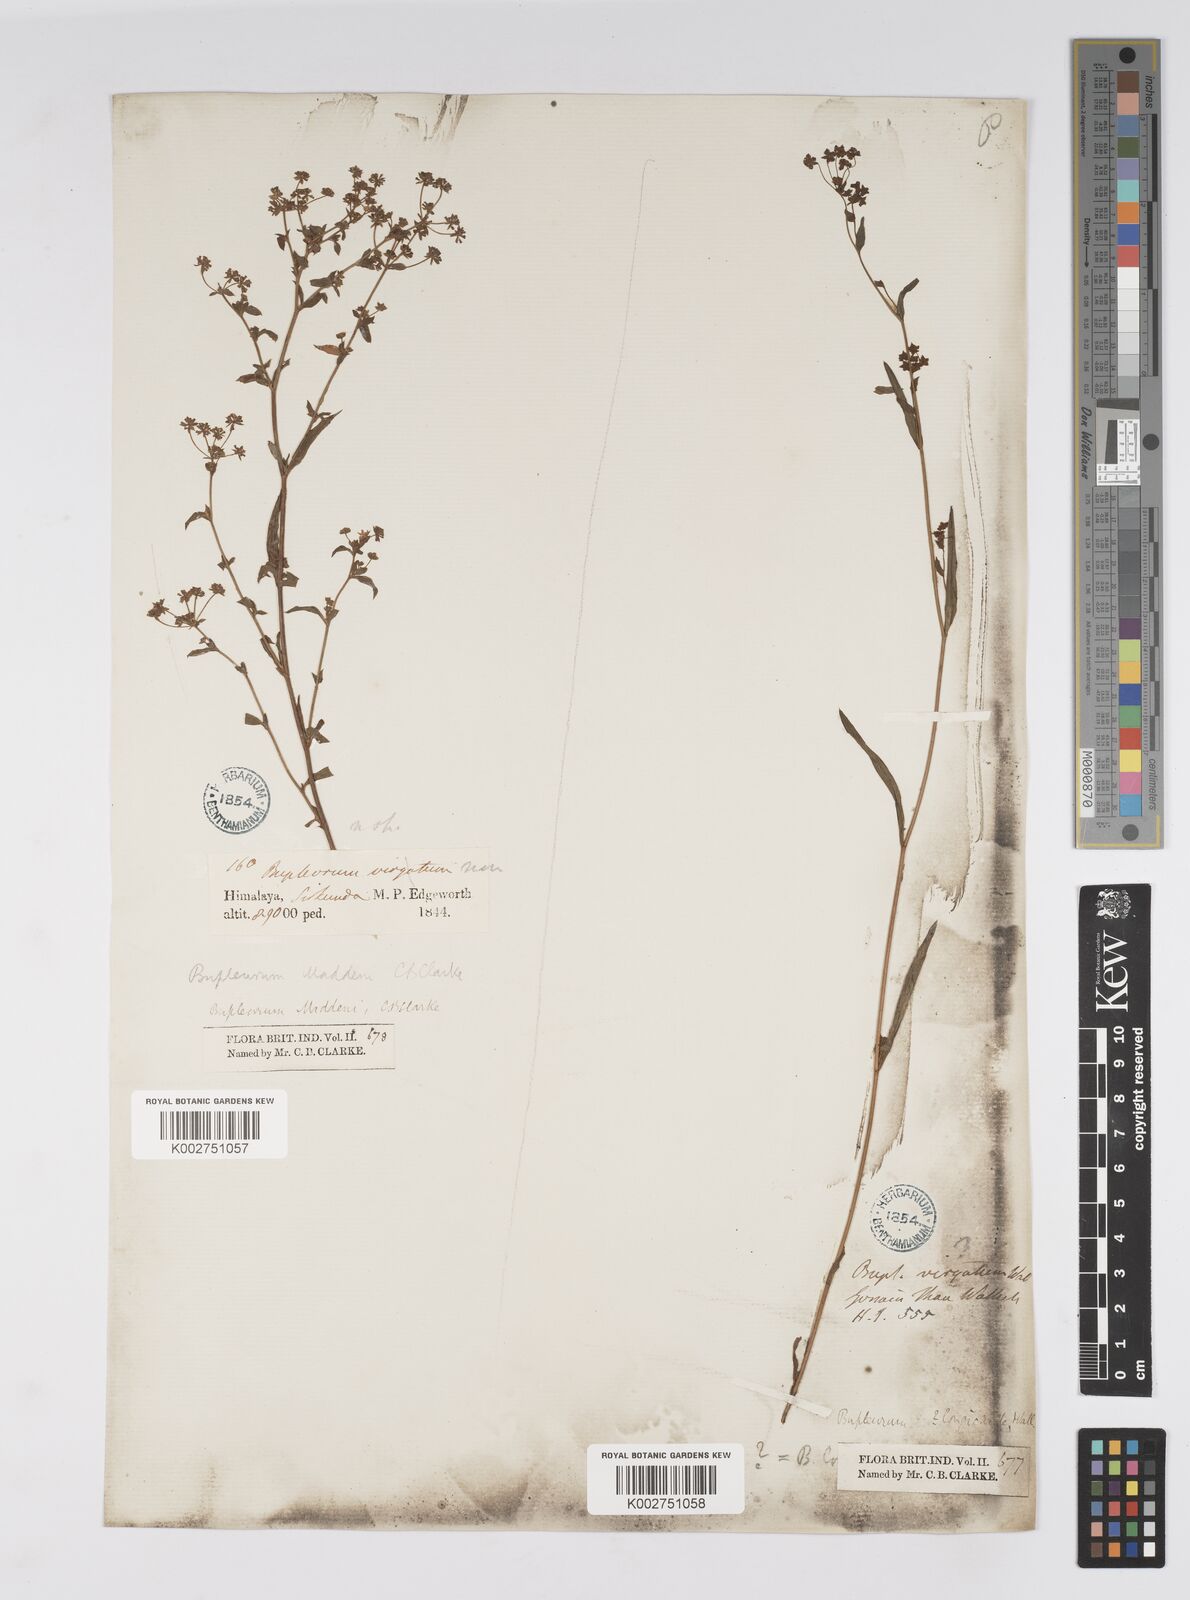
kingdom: Plantae
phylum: Tracheophyta
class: Magnoliopsida
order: Apiales
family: Apiaceae
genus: Bupleurum
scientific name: Bupleurum maddenii
